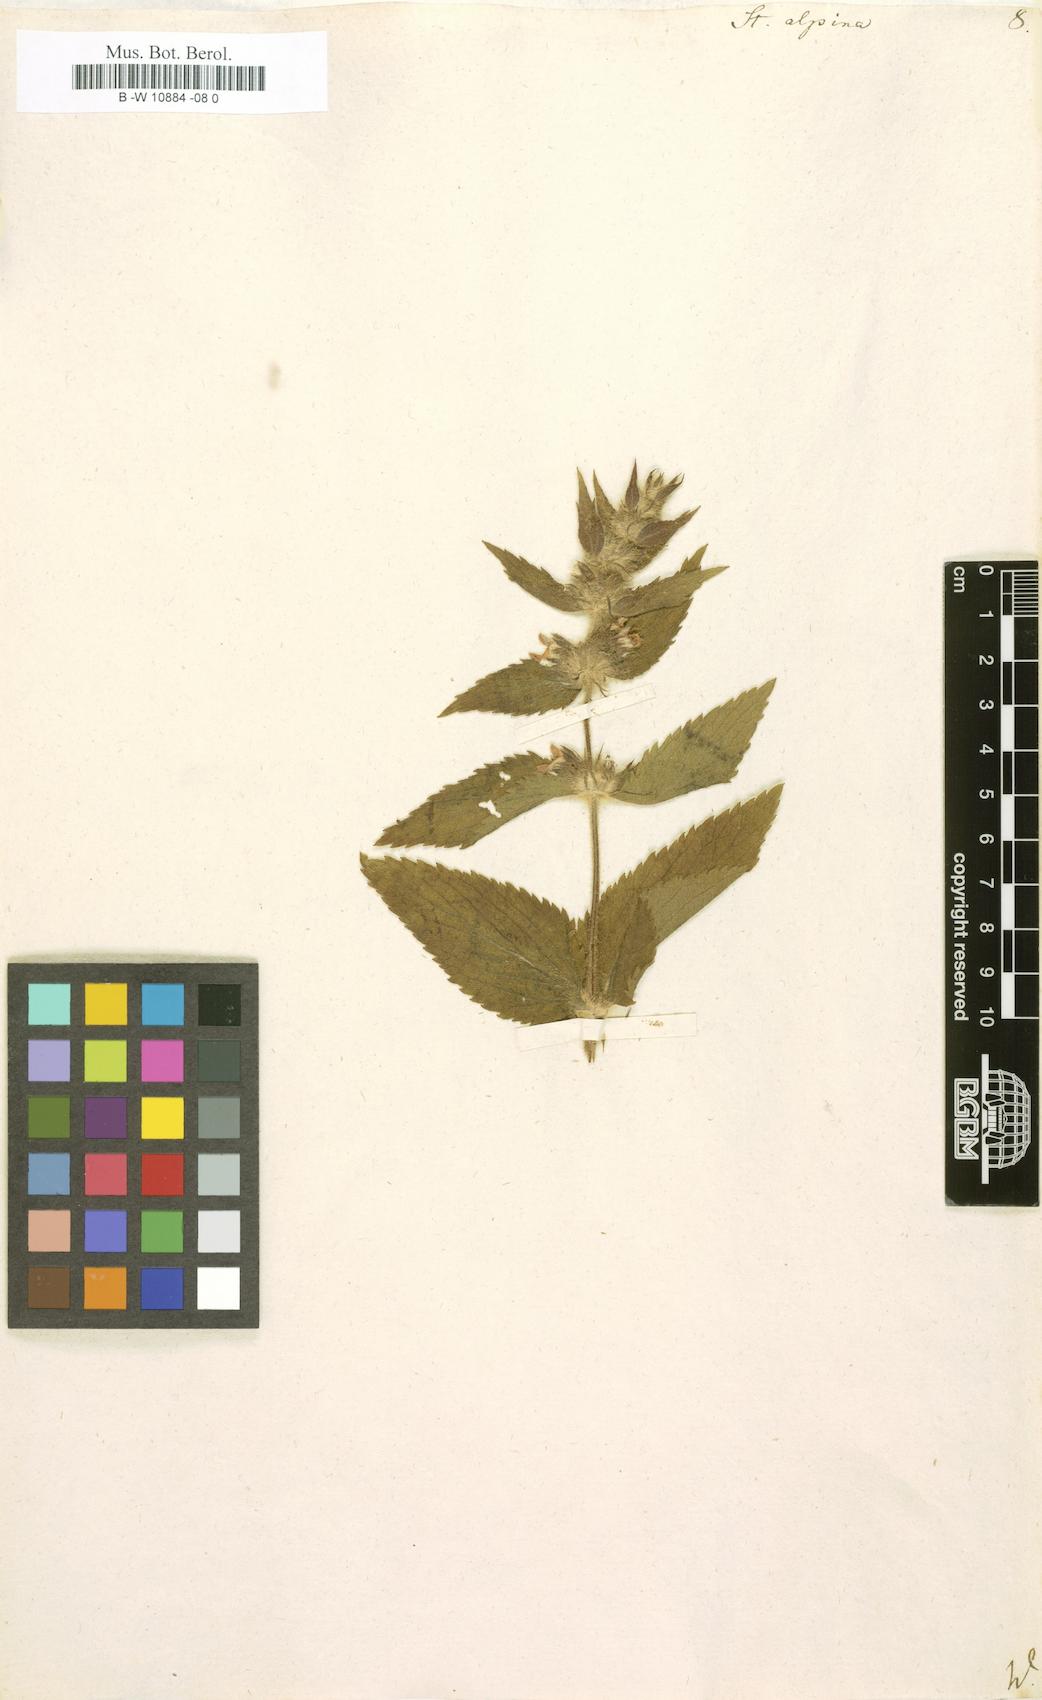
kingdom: Plantae
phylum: Tracheophyta
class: Magnoliopsida
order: Lamiales
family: Lamiaceae
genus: Stachys
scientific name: Stachys alpina
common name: Limestone woundwort
